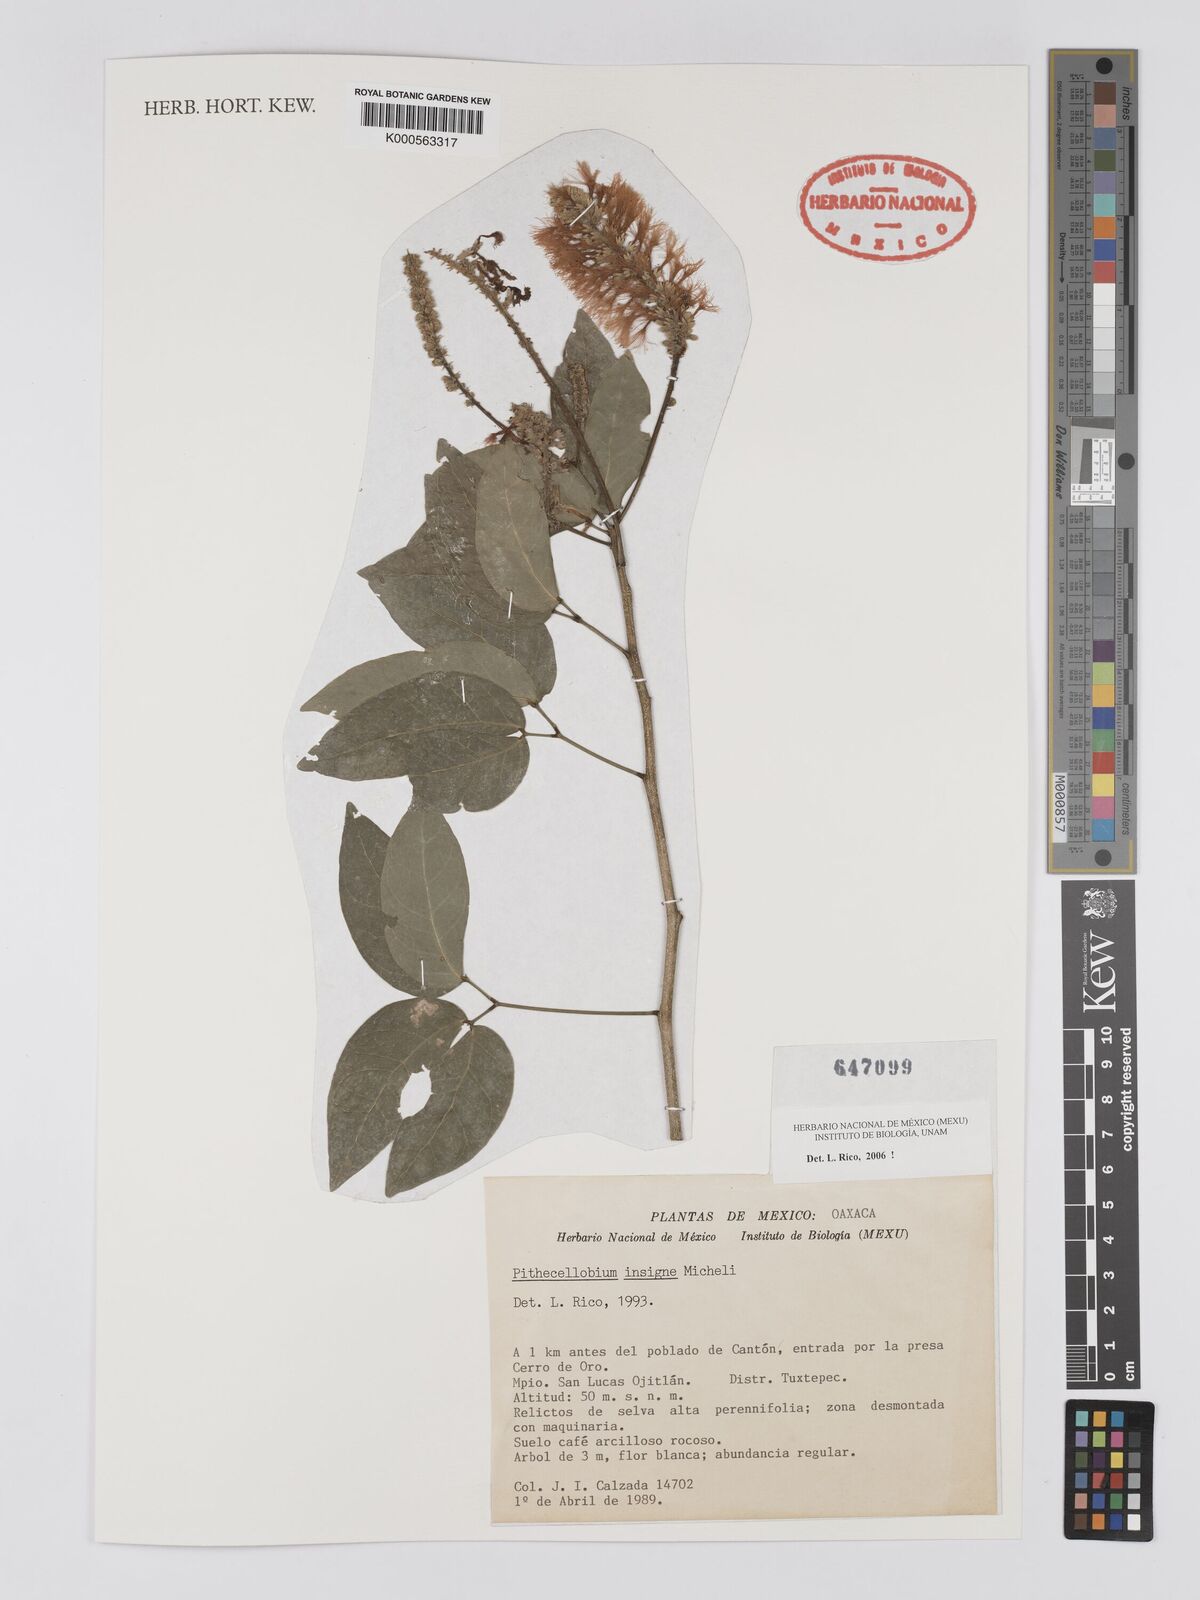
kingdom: Plantae
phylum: Tracheophyta
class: Magnoliopsida
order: Fabales
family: Fabaceae
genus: Pithecellobium
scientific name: Pithecellobium lanceolatum
